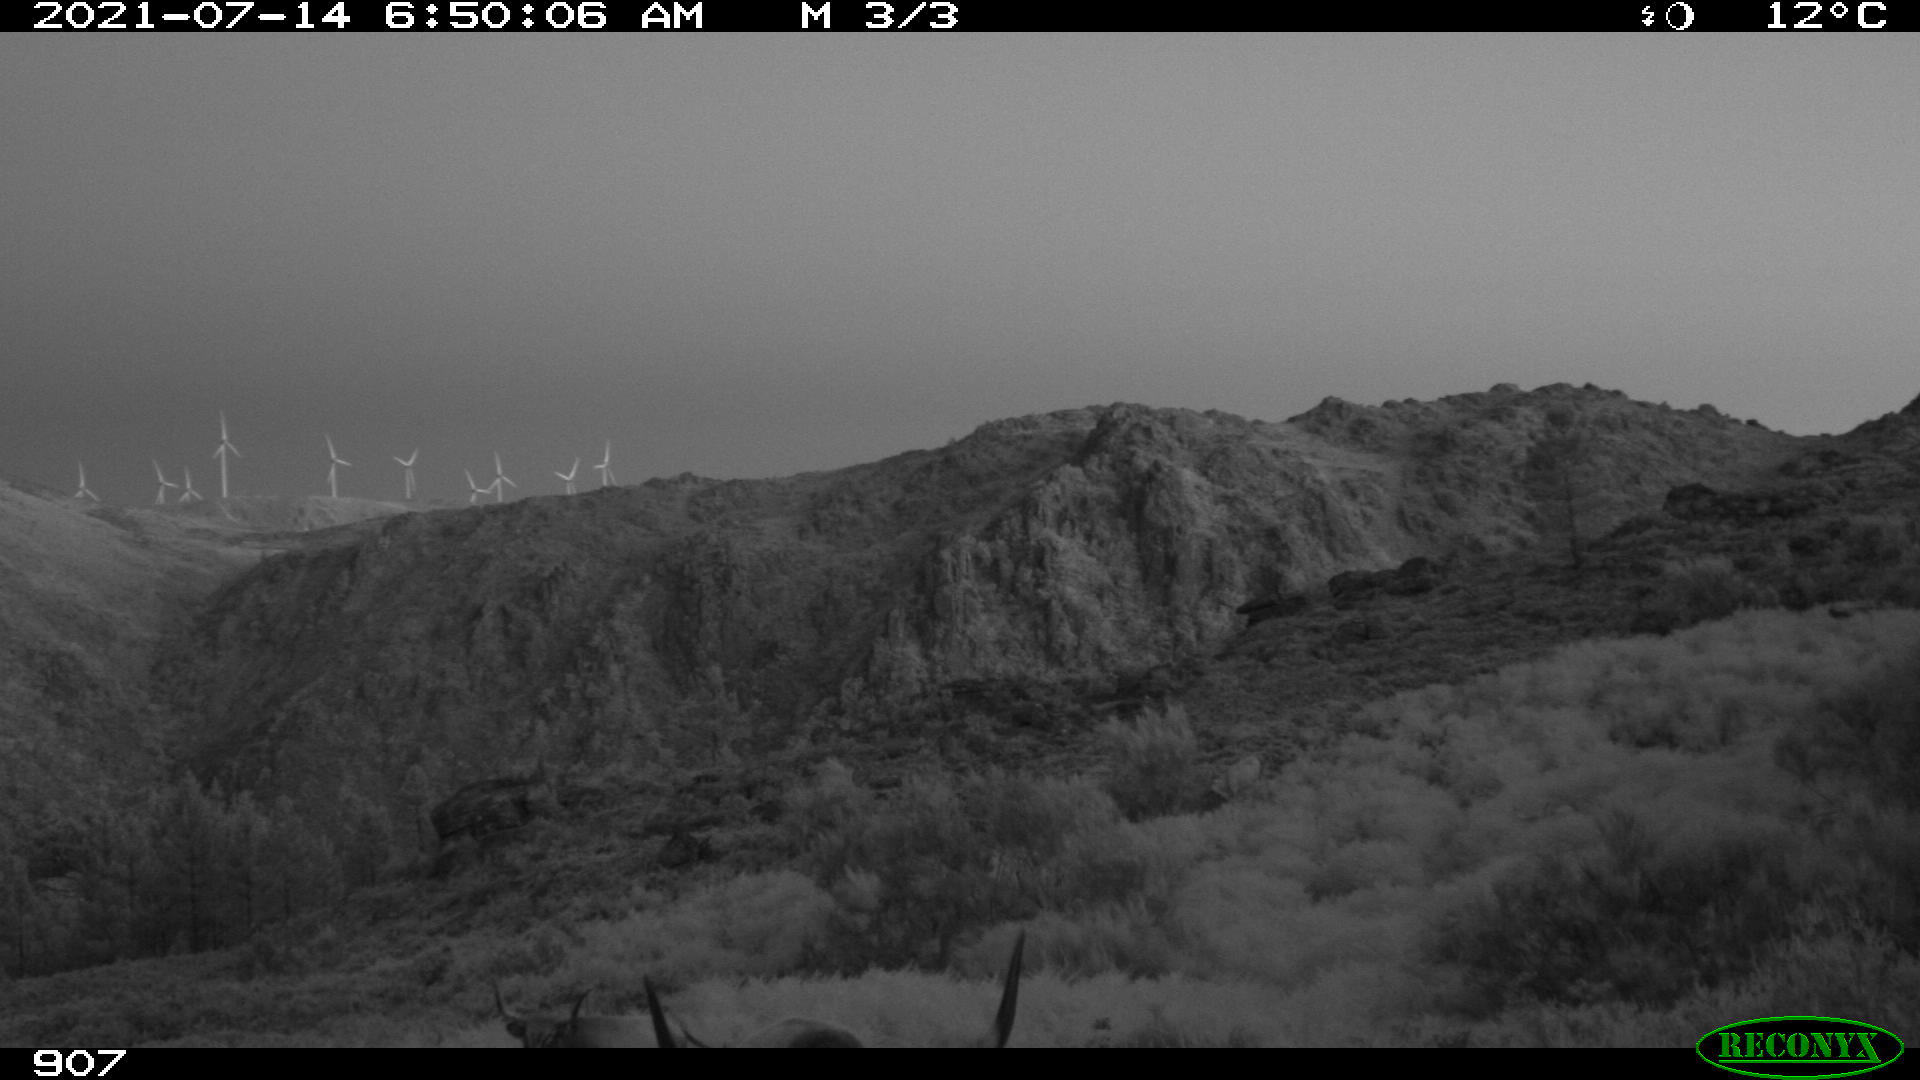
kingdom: Animalia
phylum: Chordata
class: Mammalia
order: Artiodactyla
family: Bovidae
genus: Bos
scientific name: Bos taurus
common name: Domesticated cattle
